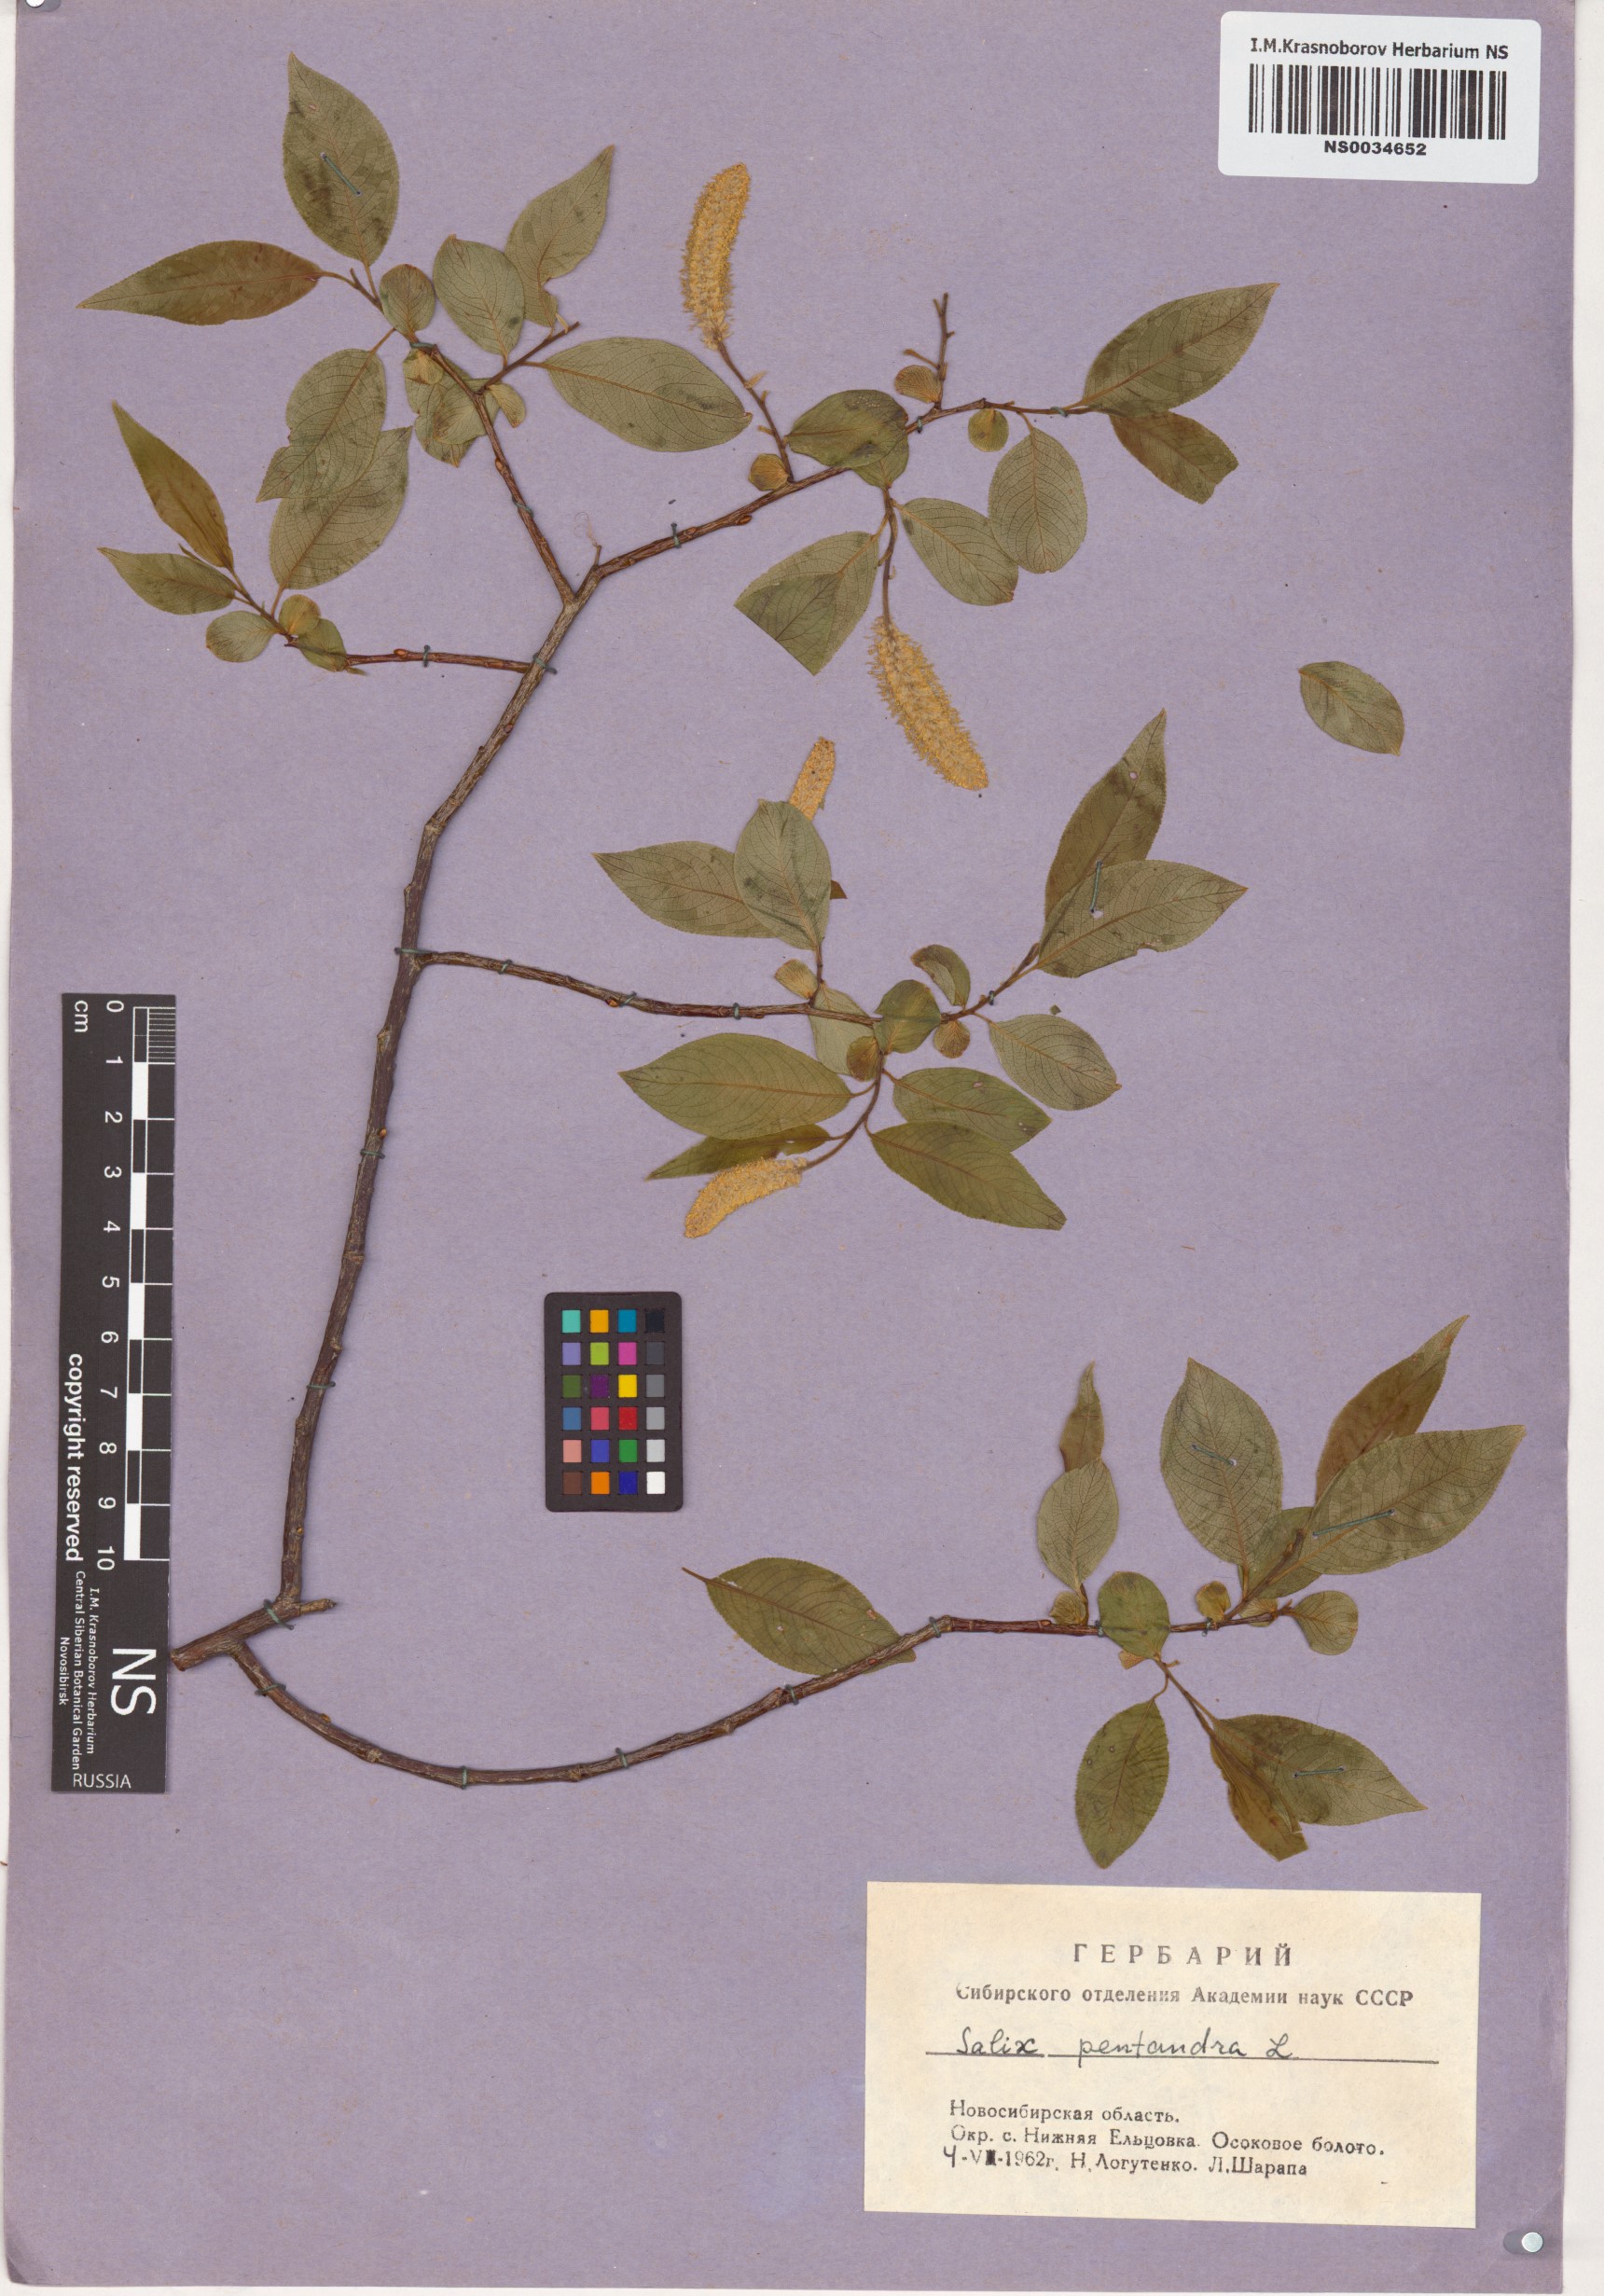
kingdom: Plantae
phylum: Tracheophyta
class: Magnoliopsida
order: Malpighiales
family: Salicaceae
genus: Salix
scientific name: Salix pentandra
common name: Bay willow
